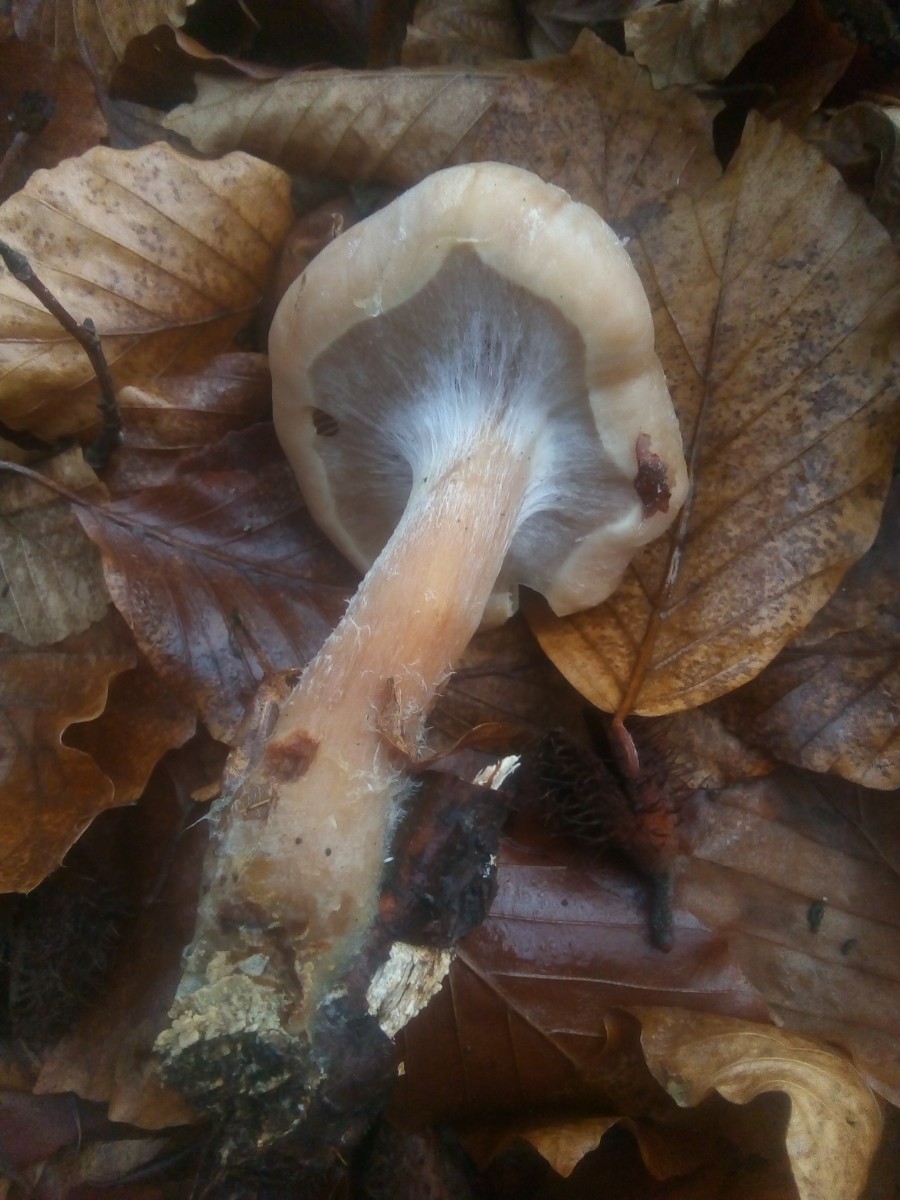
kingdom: Fungi
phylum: Basidiomycota
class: Agaricomycetes
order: Agaricales
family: Strophariaceae
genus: Pholiota
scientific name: Pholiota lenta
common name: løv-skælhat
